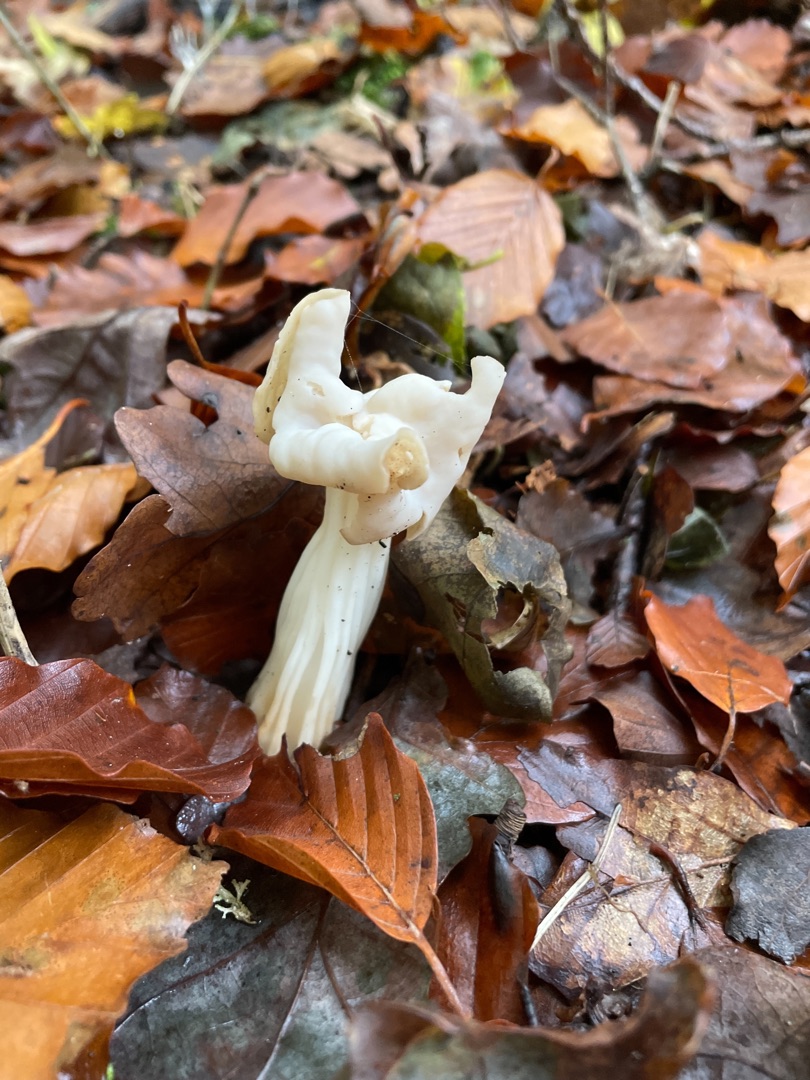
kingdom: Fungi
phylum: Ascomycota
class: Pezizomycetes
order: Pezizales
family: Helvellaceae
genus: Helvella
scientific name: Helvella crispa
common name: Kruset foldhat
